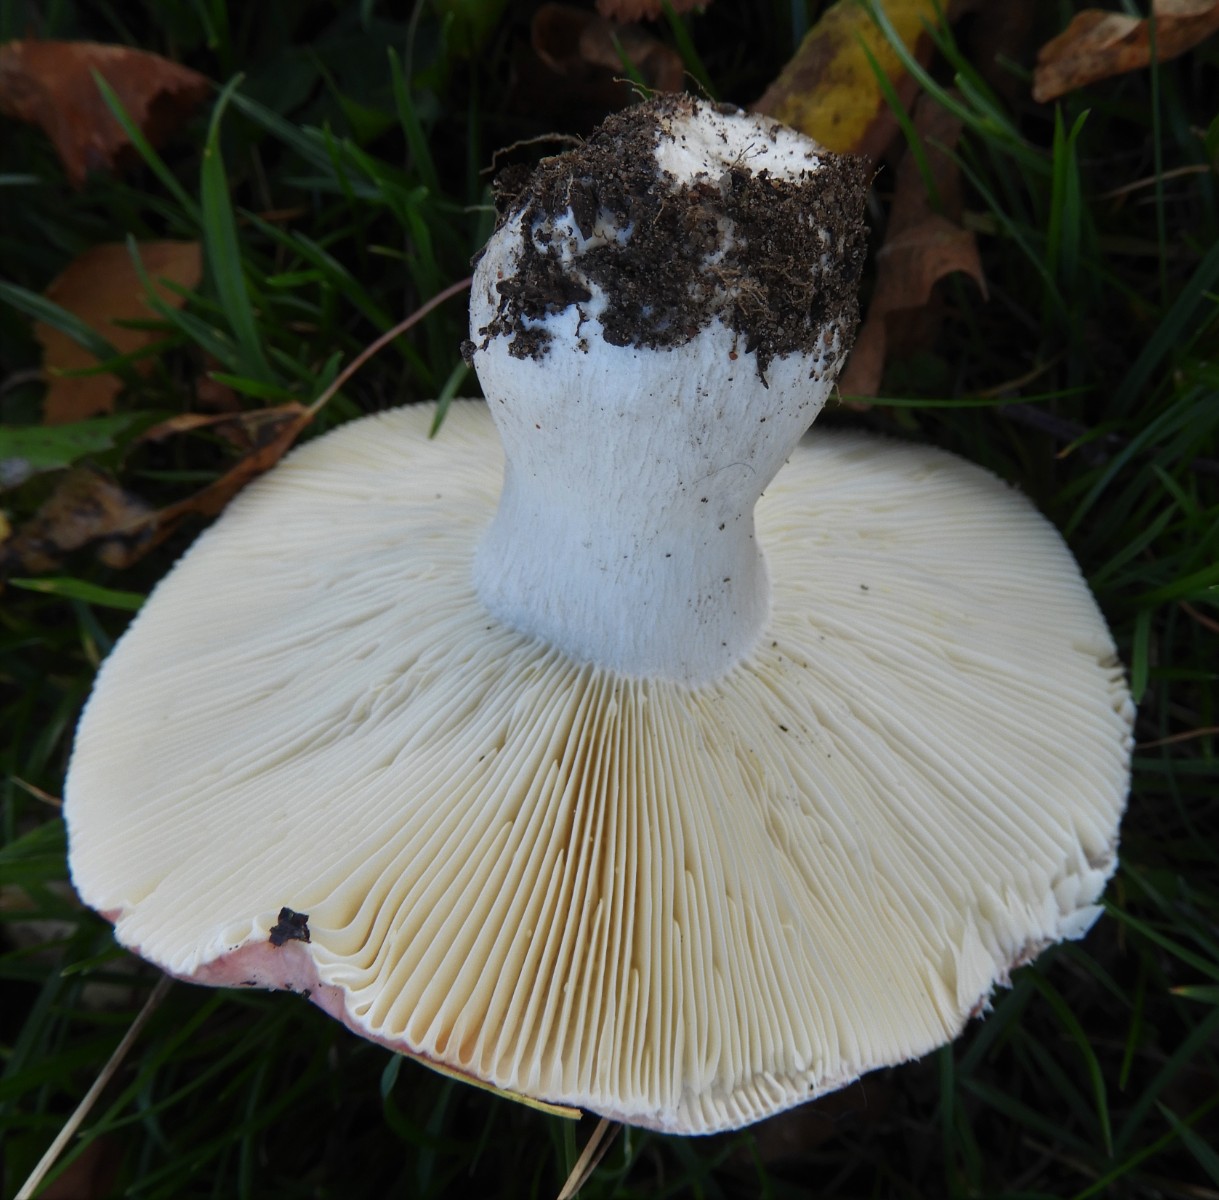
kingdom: Fungi
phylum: Basidiomycota
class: Agaricomycetes
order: Russulales
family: Russulaceae
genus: Russula
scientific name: Russula depallens
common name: falmende skørhat
